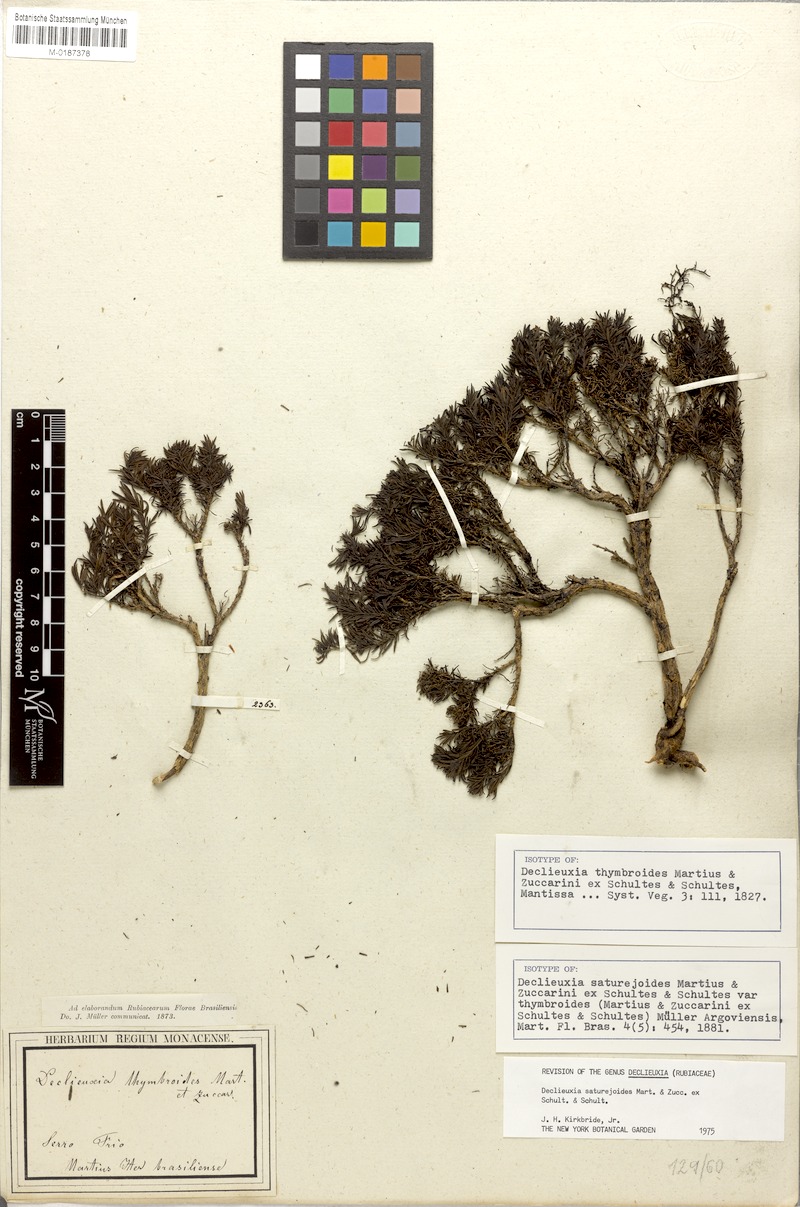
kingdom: Plantae
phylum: Tracheophyta
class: Magnoliopsida
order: Gentianales
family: Rubiaceae
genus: Declieuxia
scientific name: Declieuxia saturejoides
